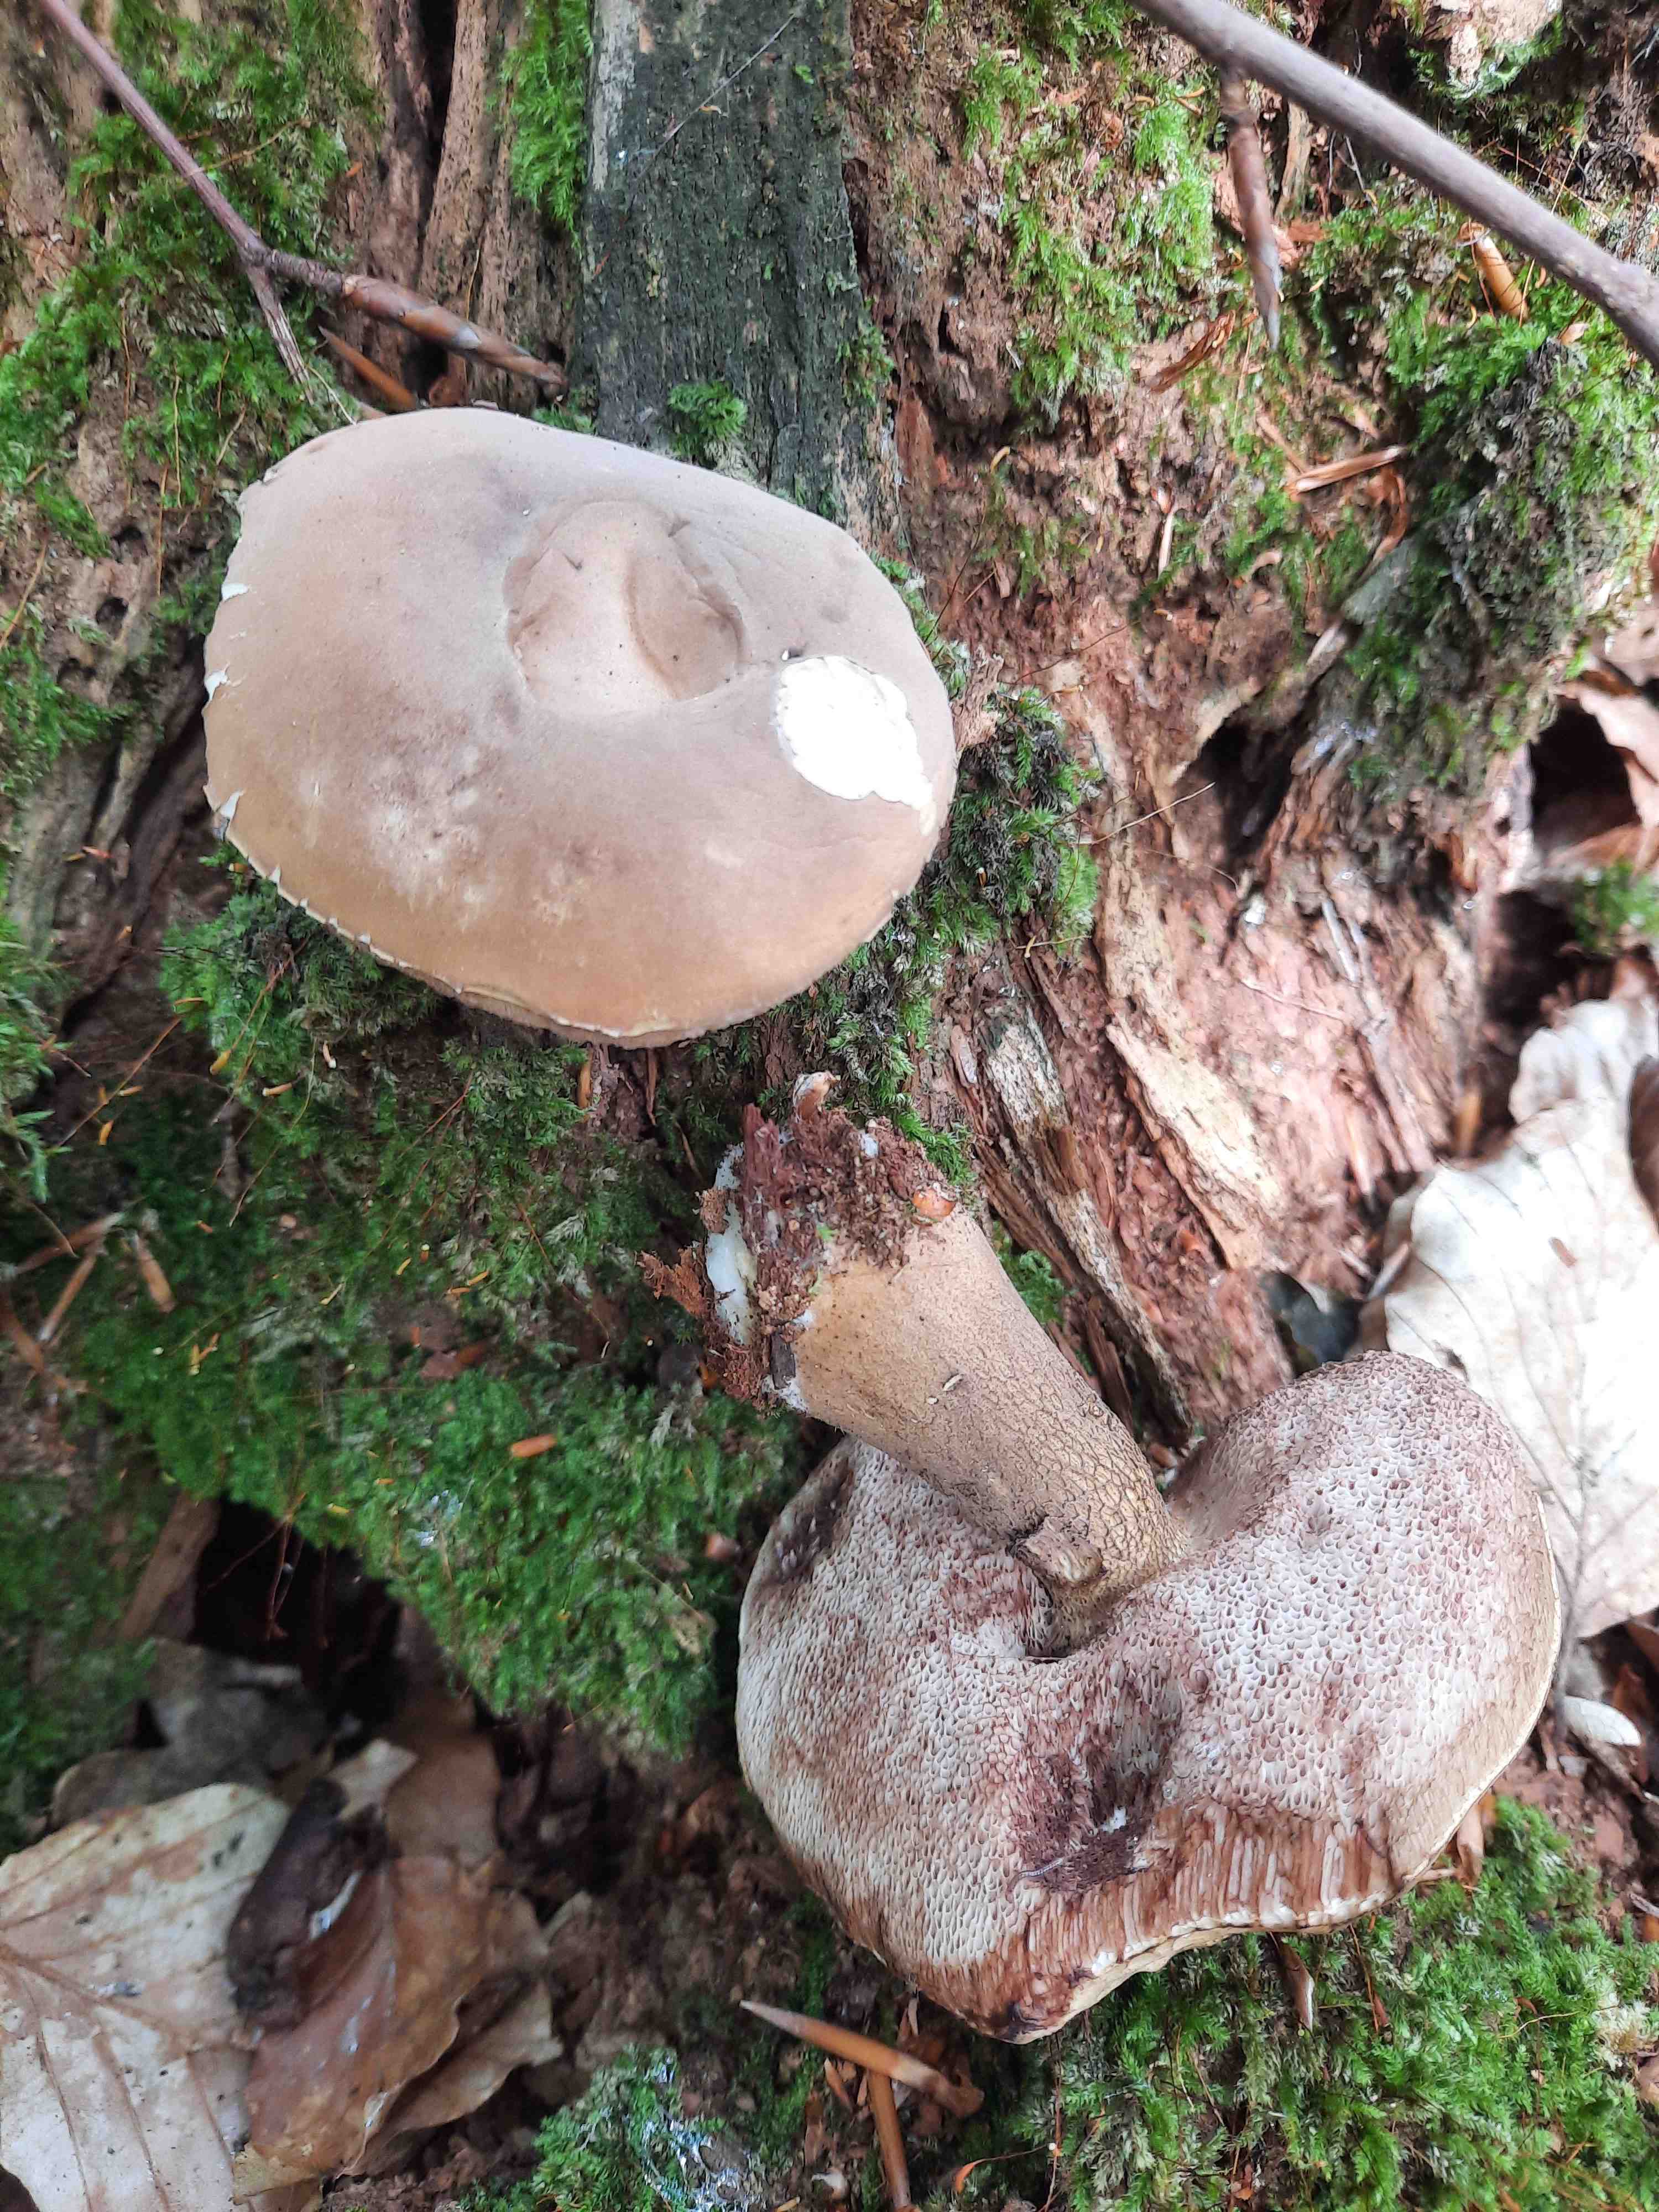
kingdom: Fungi
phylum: Basidiomycota
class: Agaricomycetes
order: Boletales
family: Boletaceae
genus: Tylopilus
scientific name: Tylopilus felleus
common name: galderørhat
